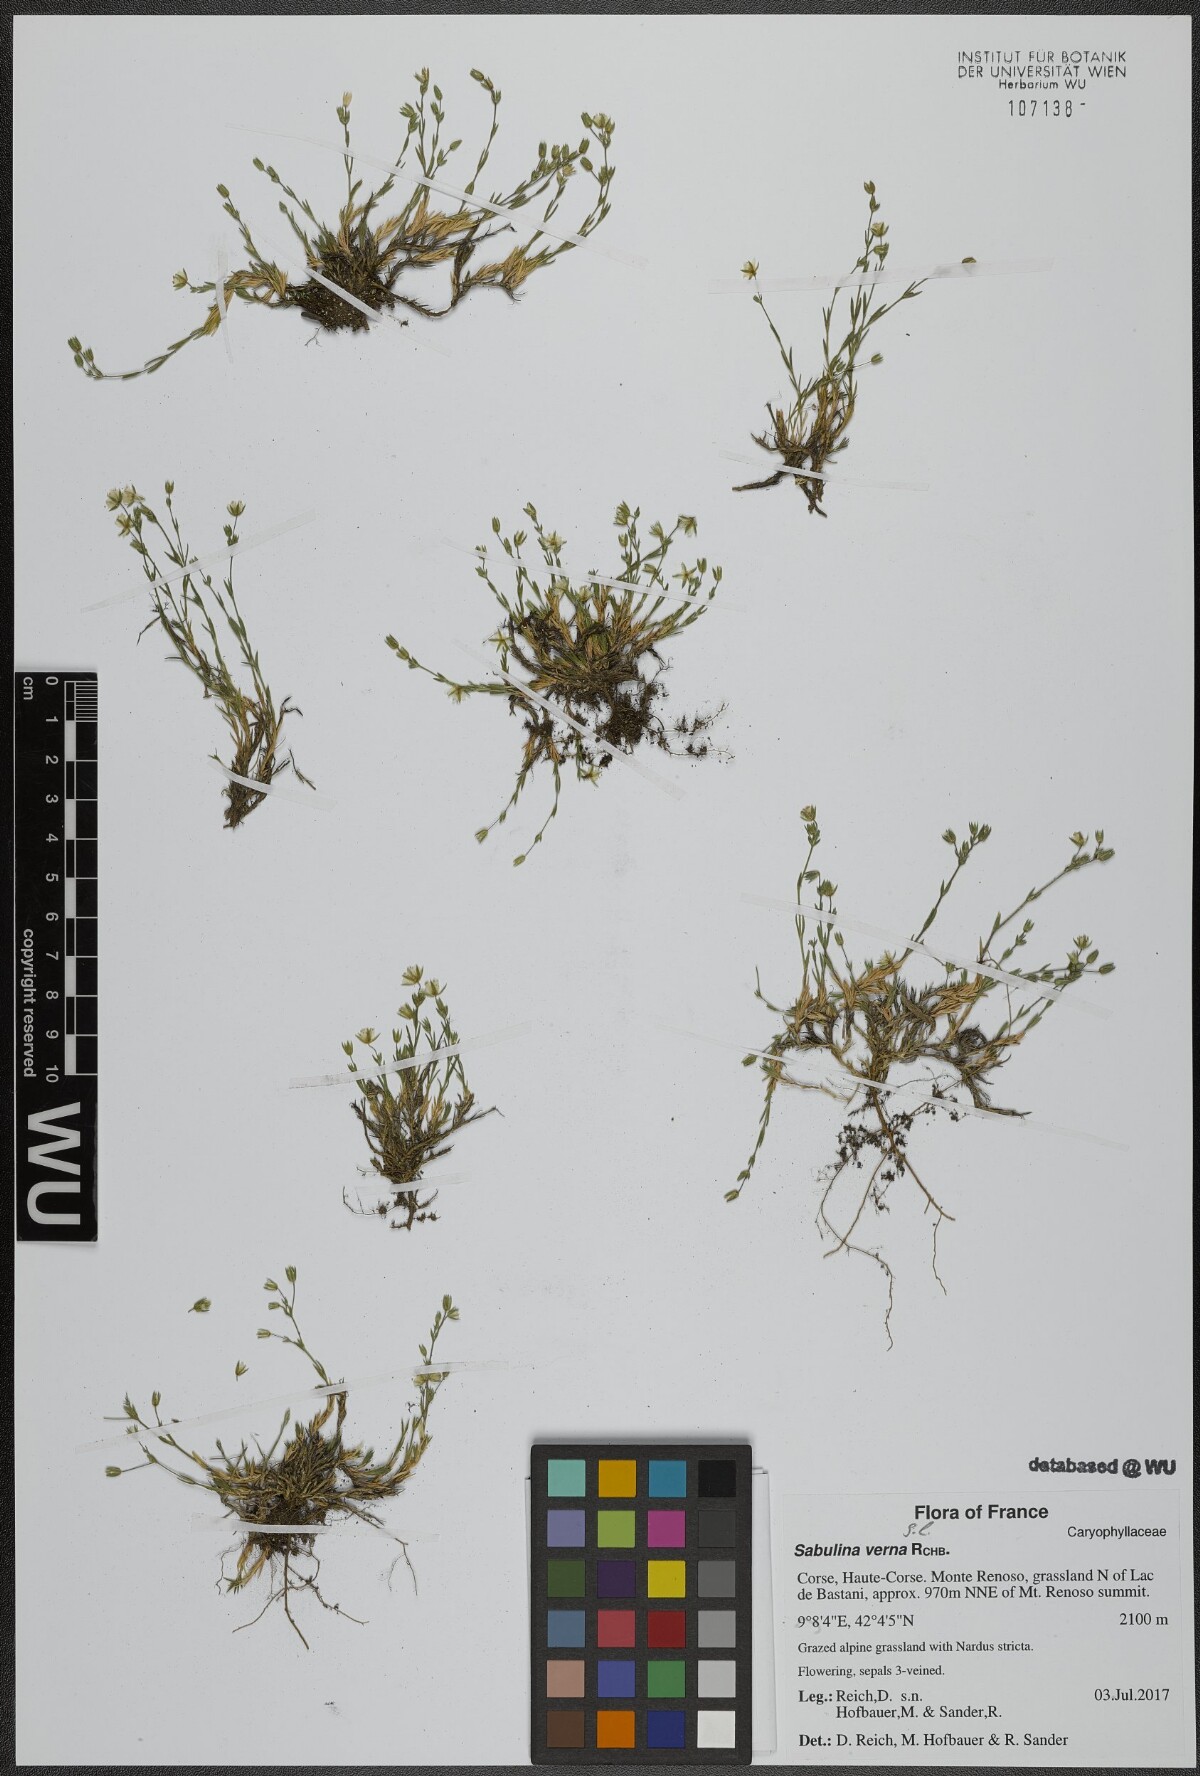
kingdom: Plantae
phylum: Tracheophyta
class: Magnoliopsida
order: Caryophyllales
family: Caryophyllaceae
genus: Sabulina
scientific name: Sabulina verna
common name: Spring sandwort
